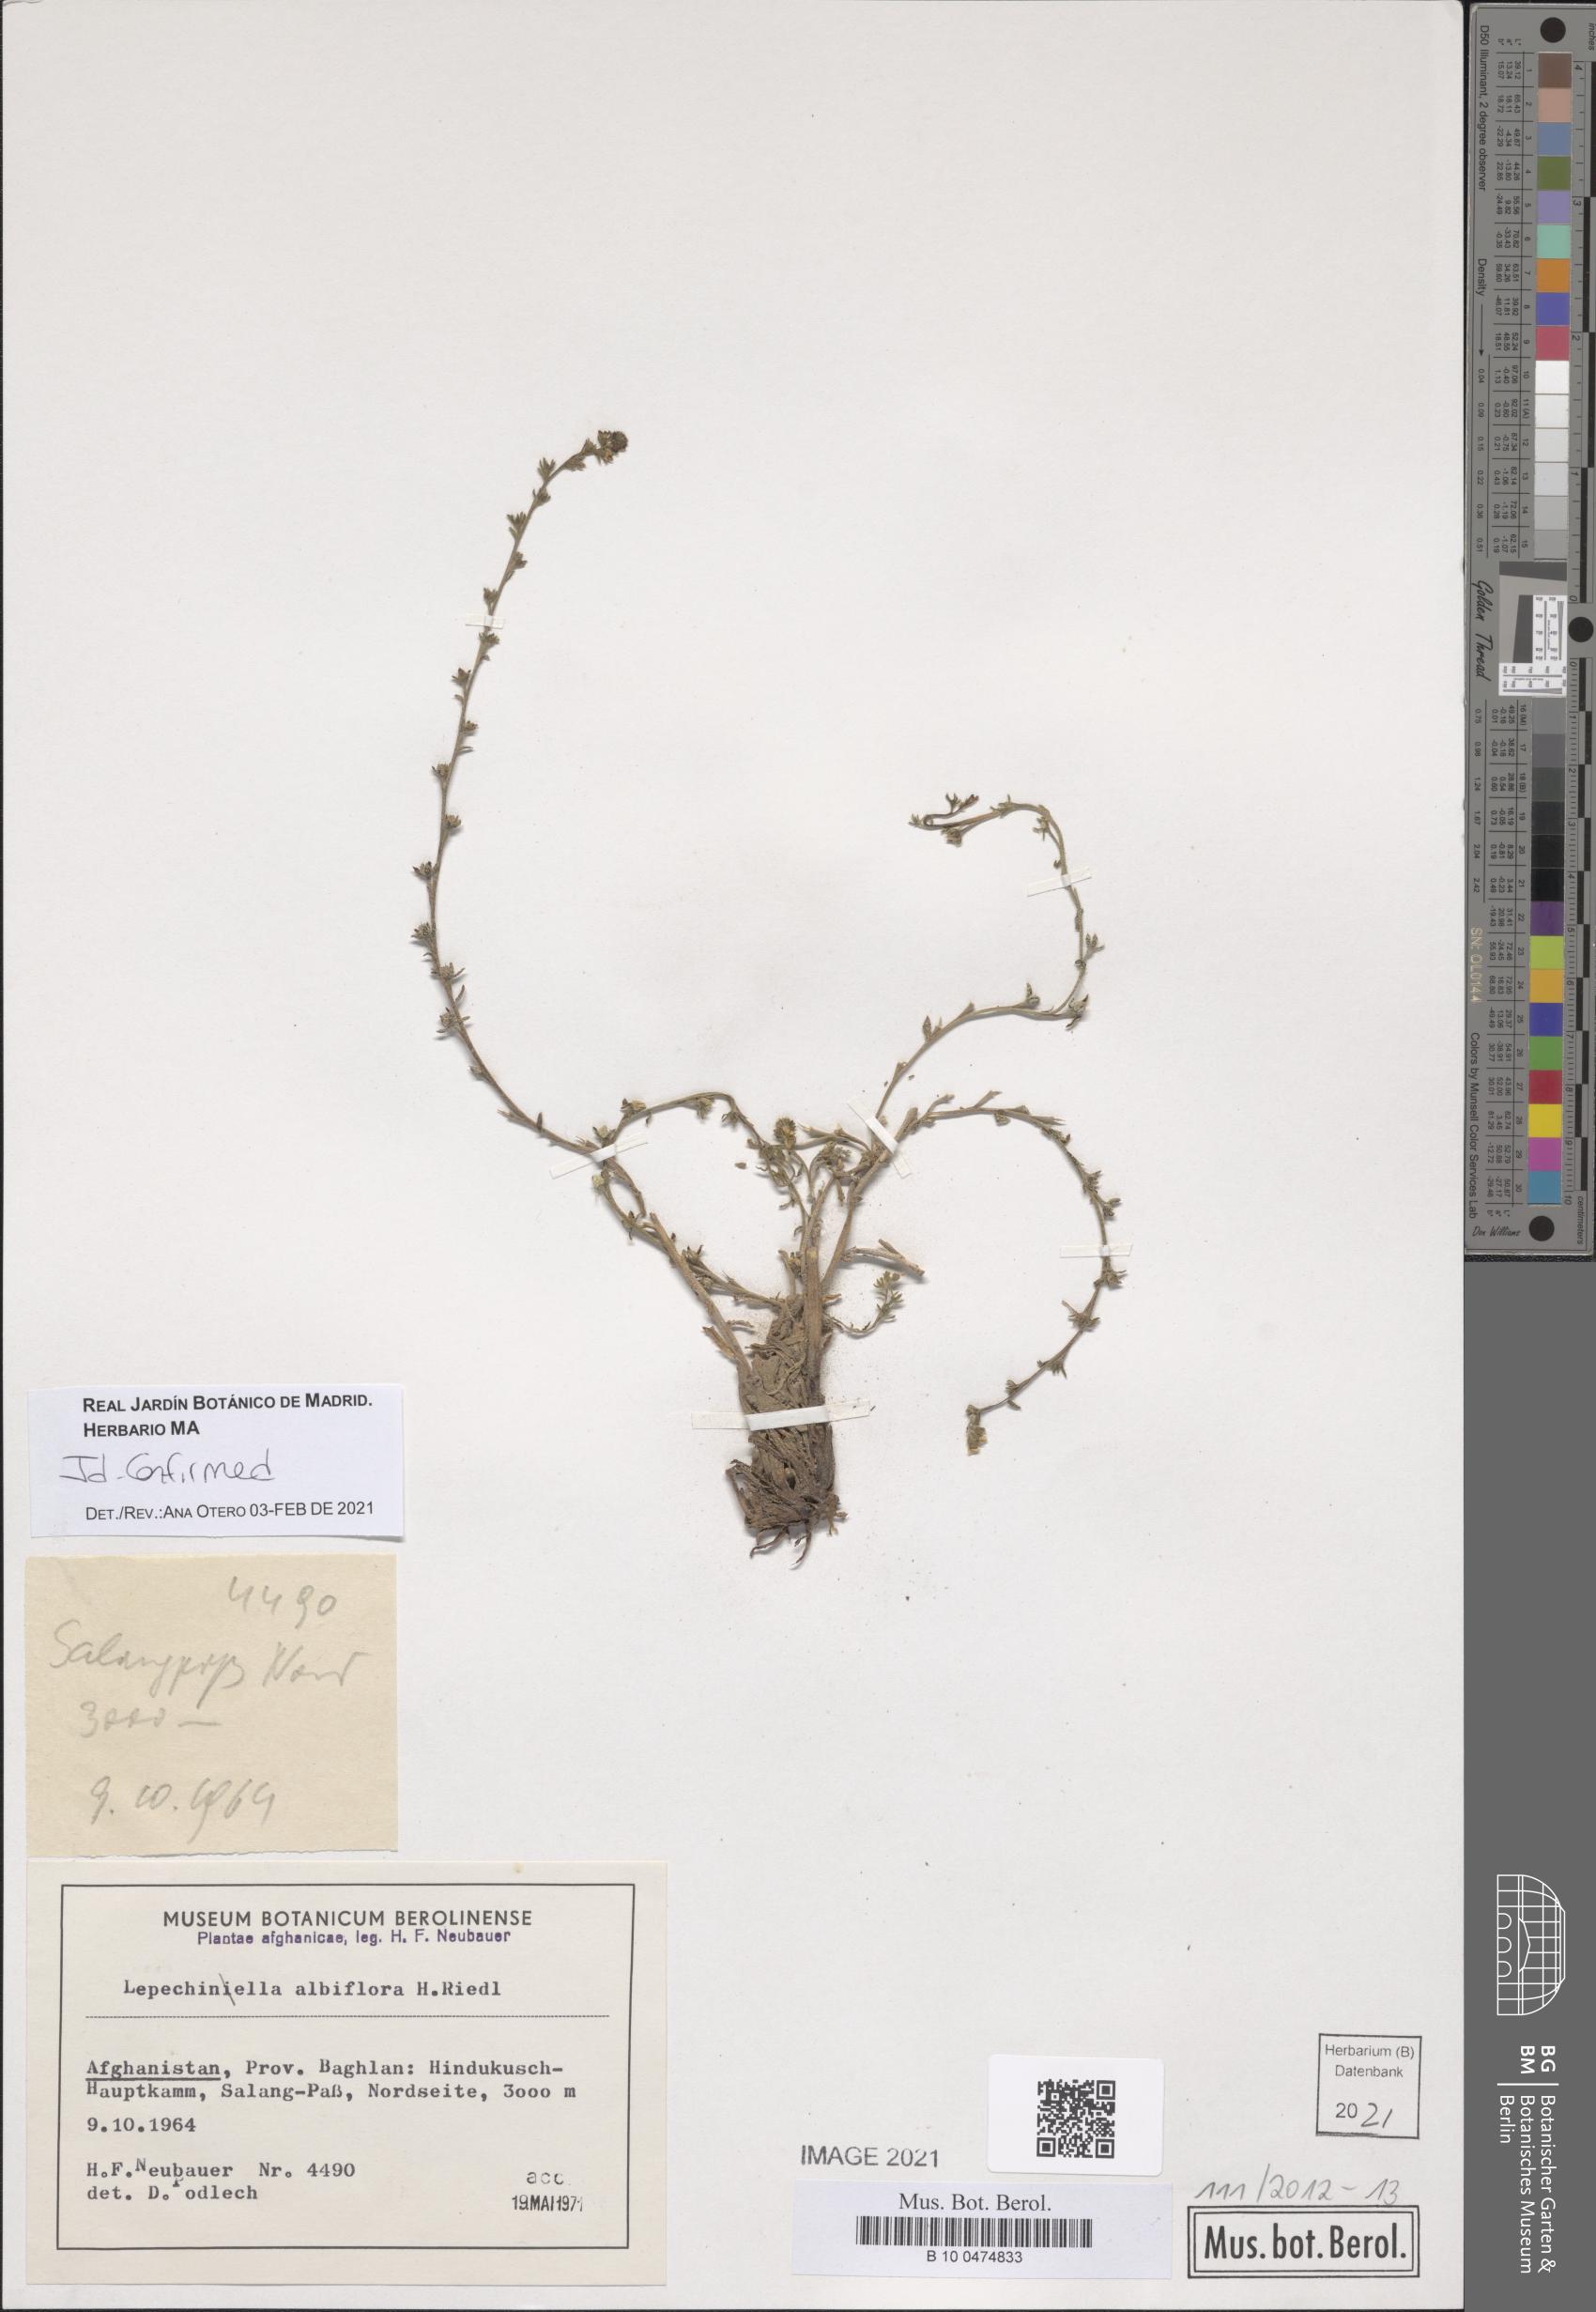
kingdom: Plantae
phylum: Tracheophyta
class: Magnoliopsida
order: Boraginales
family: Boraginaceae
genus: Lappula
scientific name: Lappula albiflora
